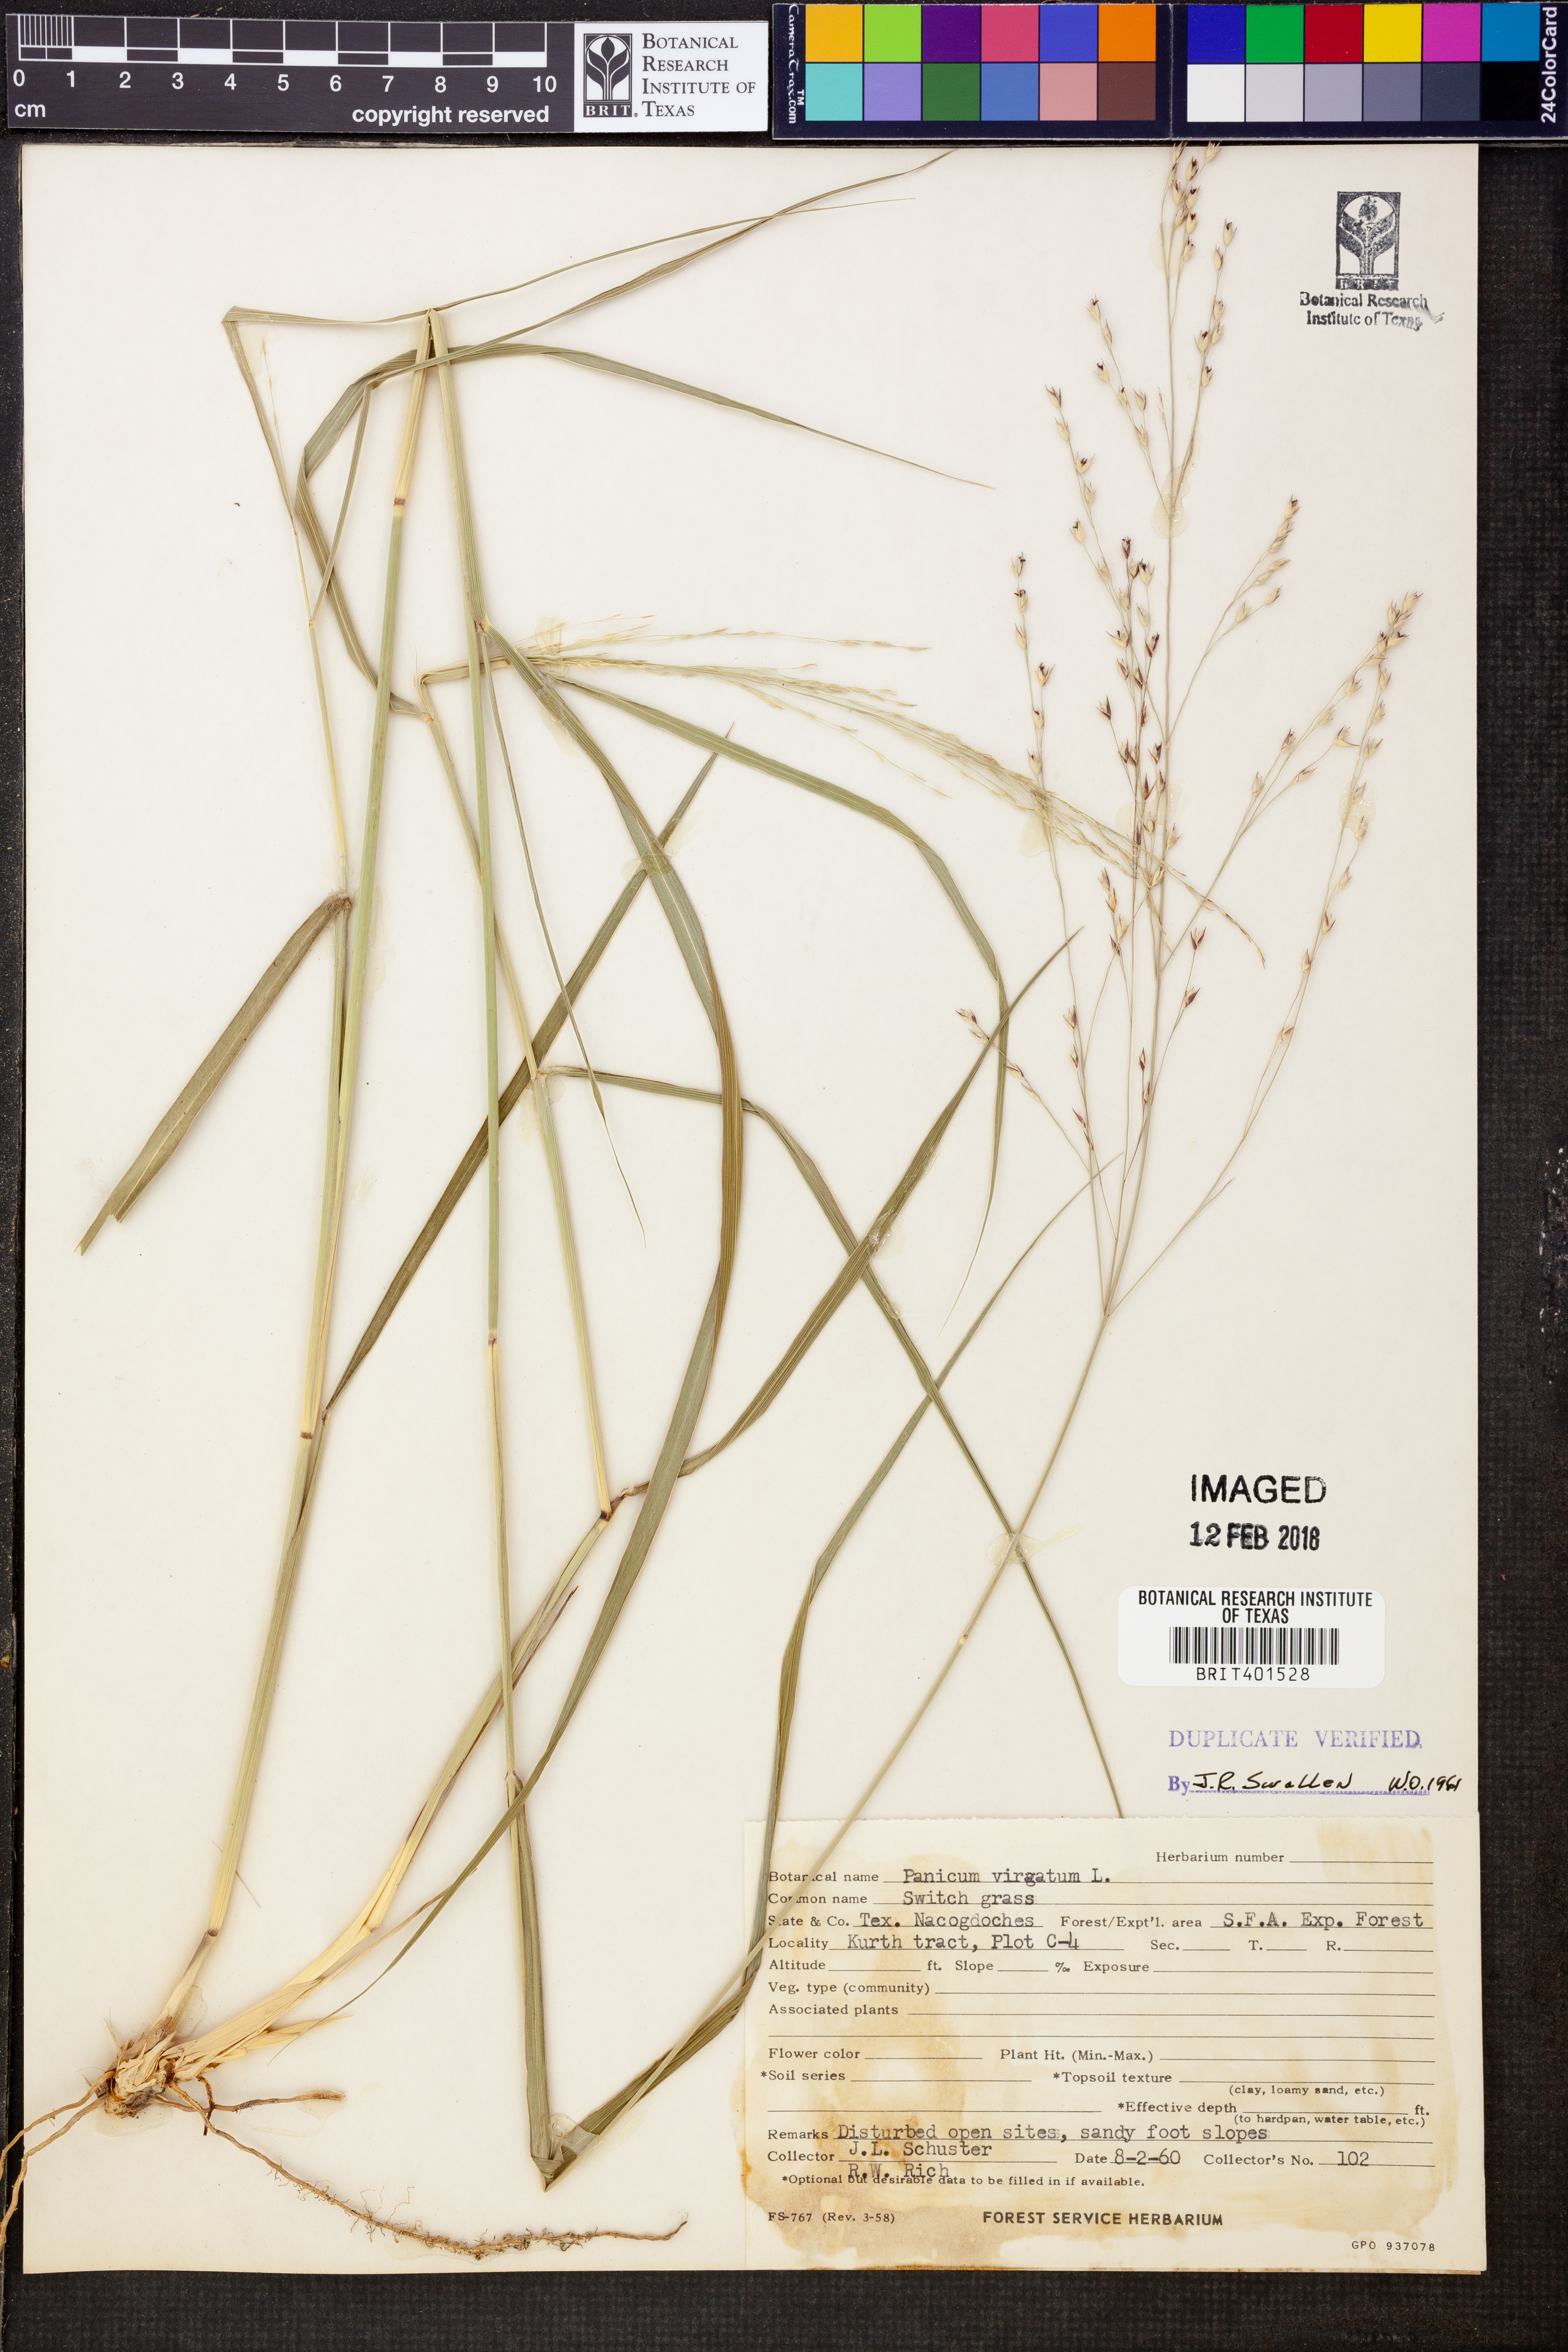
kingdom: Plantae
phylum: Tracheophyta
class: Liliopsida
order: Poales
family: Poaceae
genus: Panicum
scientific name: Panicum virgatum
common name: Switchgrass
